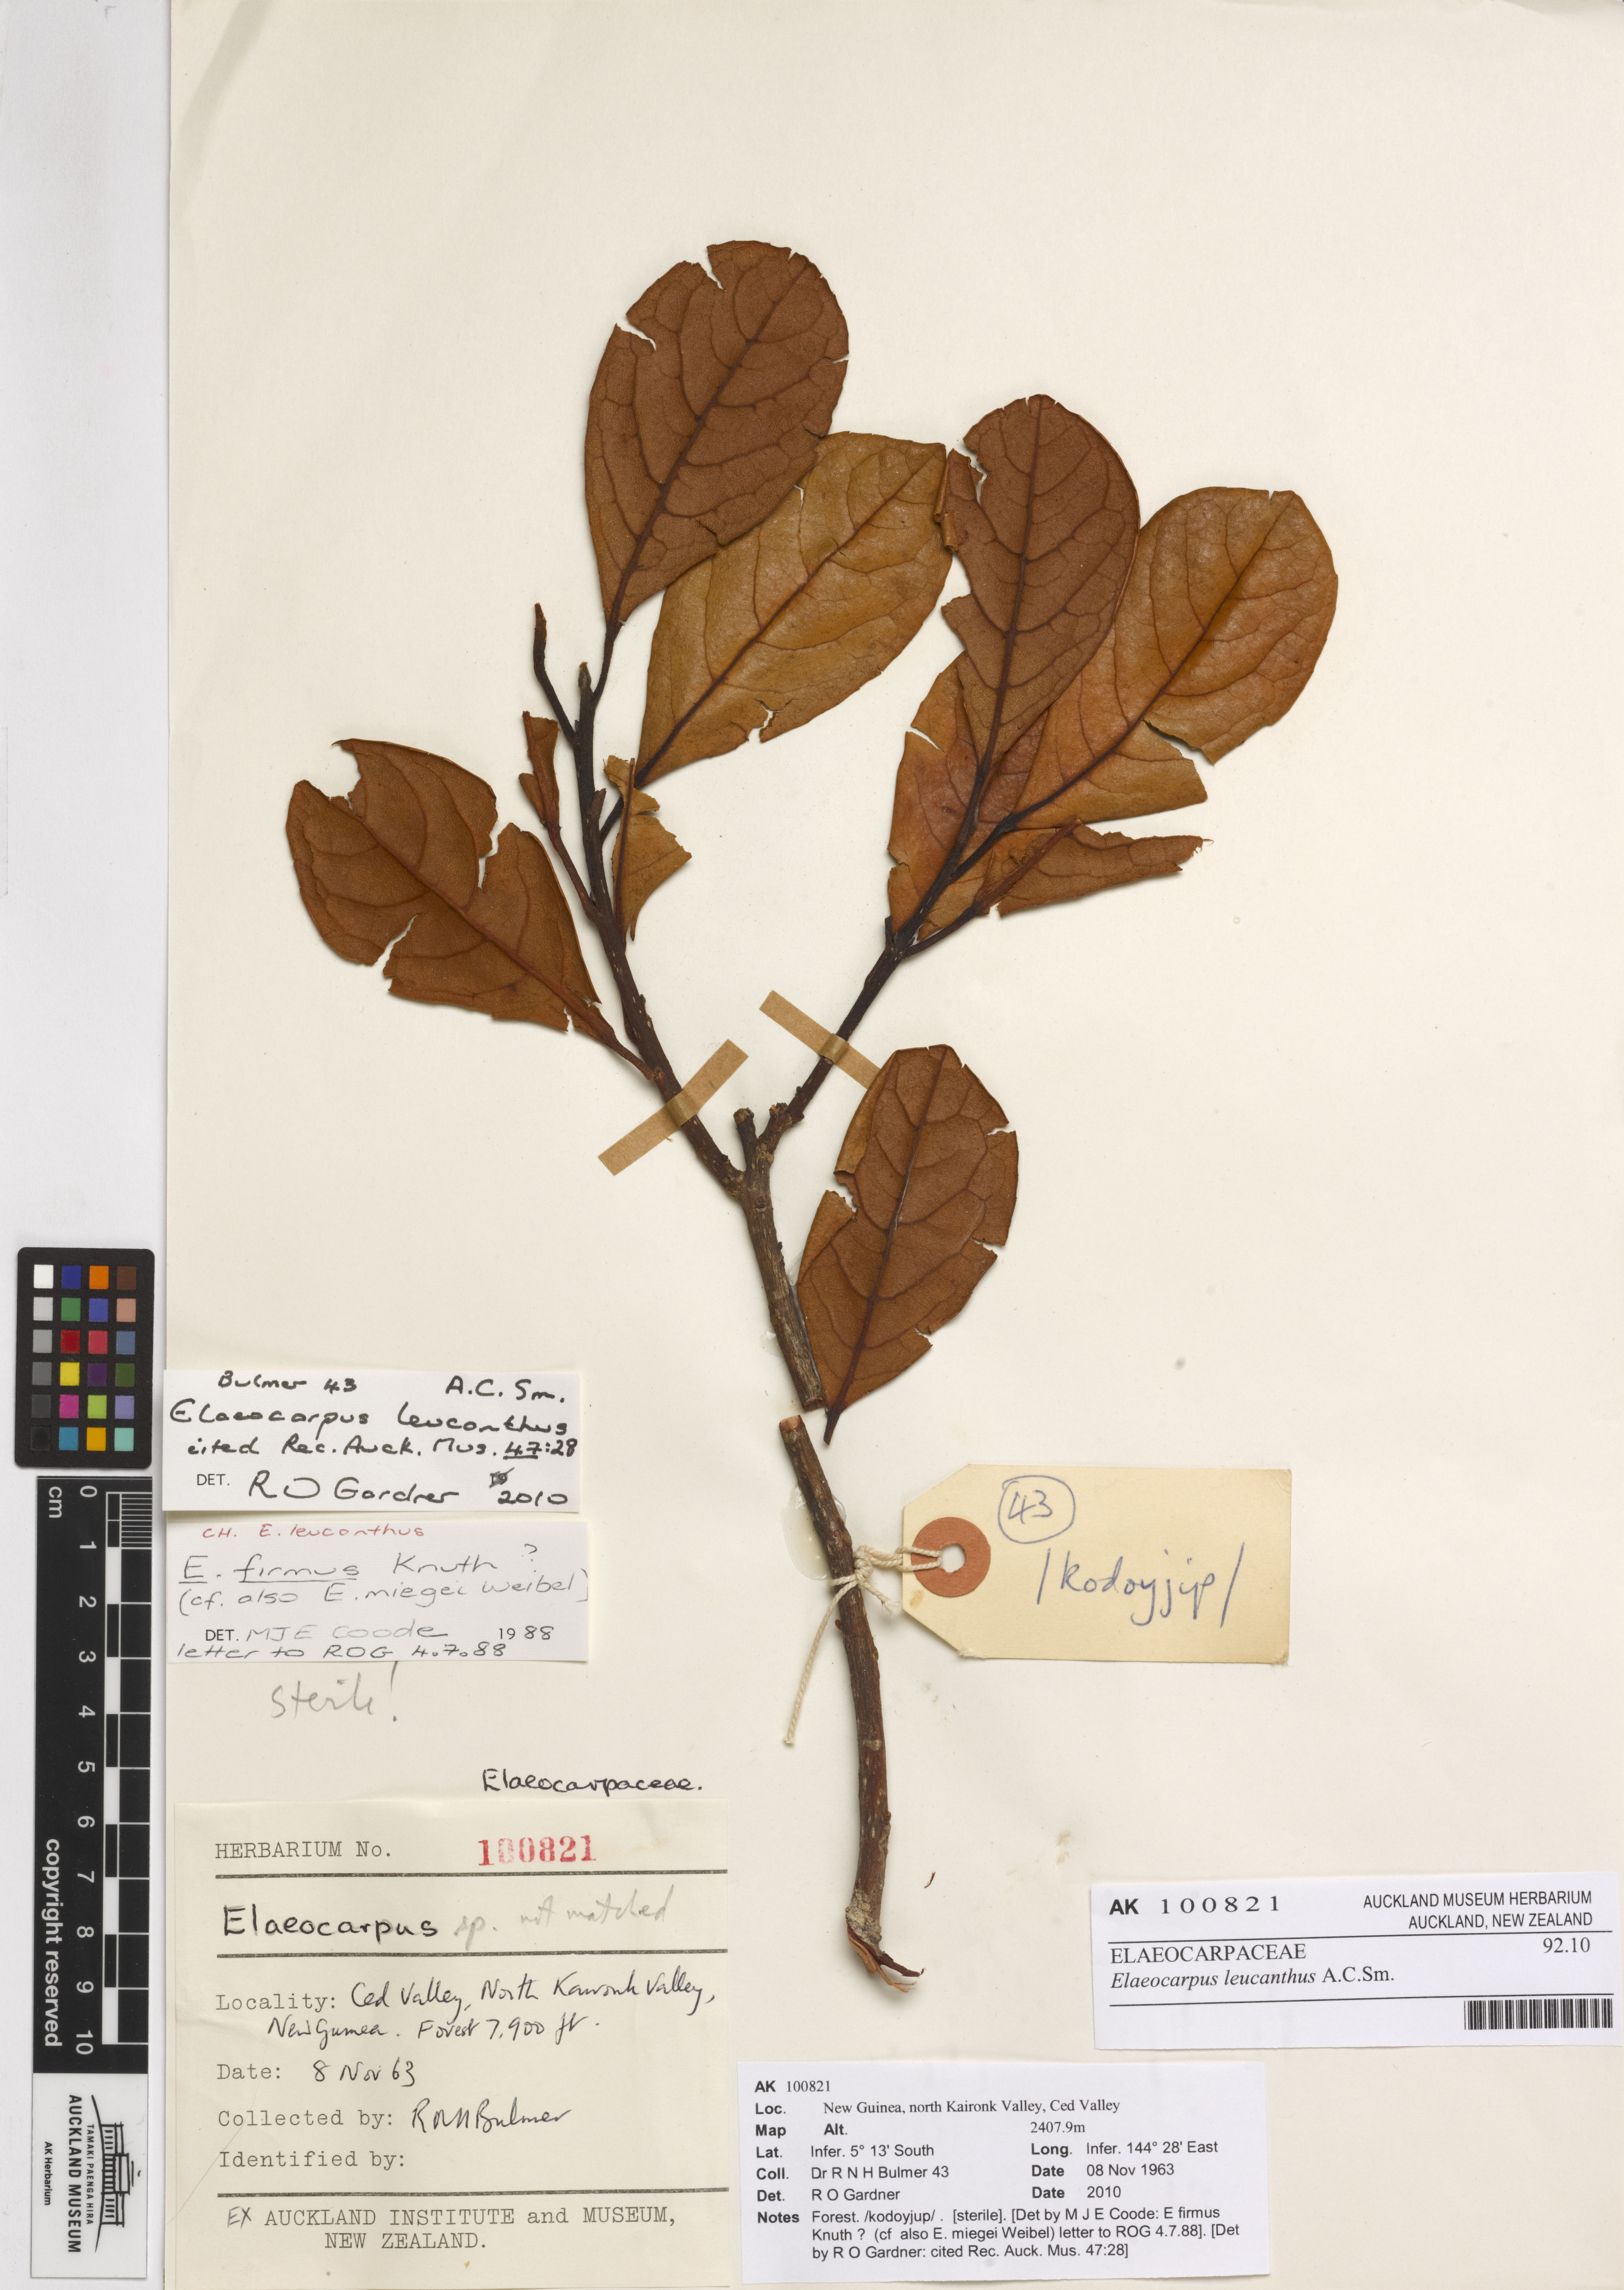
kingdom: Plantae
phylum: Tracheophyta
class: Magnoliopsida
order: Oxalidales
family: Elaeocarpaceae
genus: Elaeocarpus
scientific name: Elaeocarpus leucanthus
